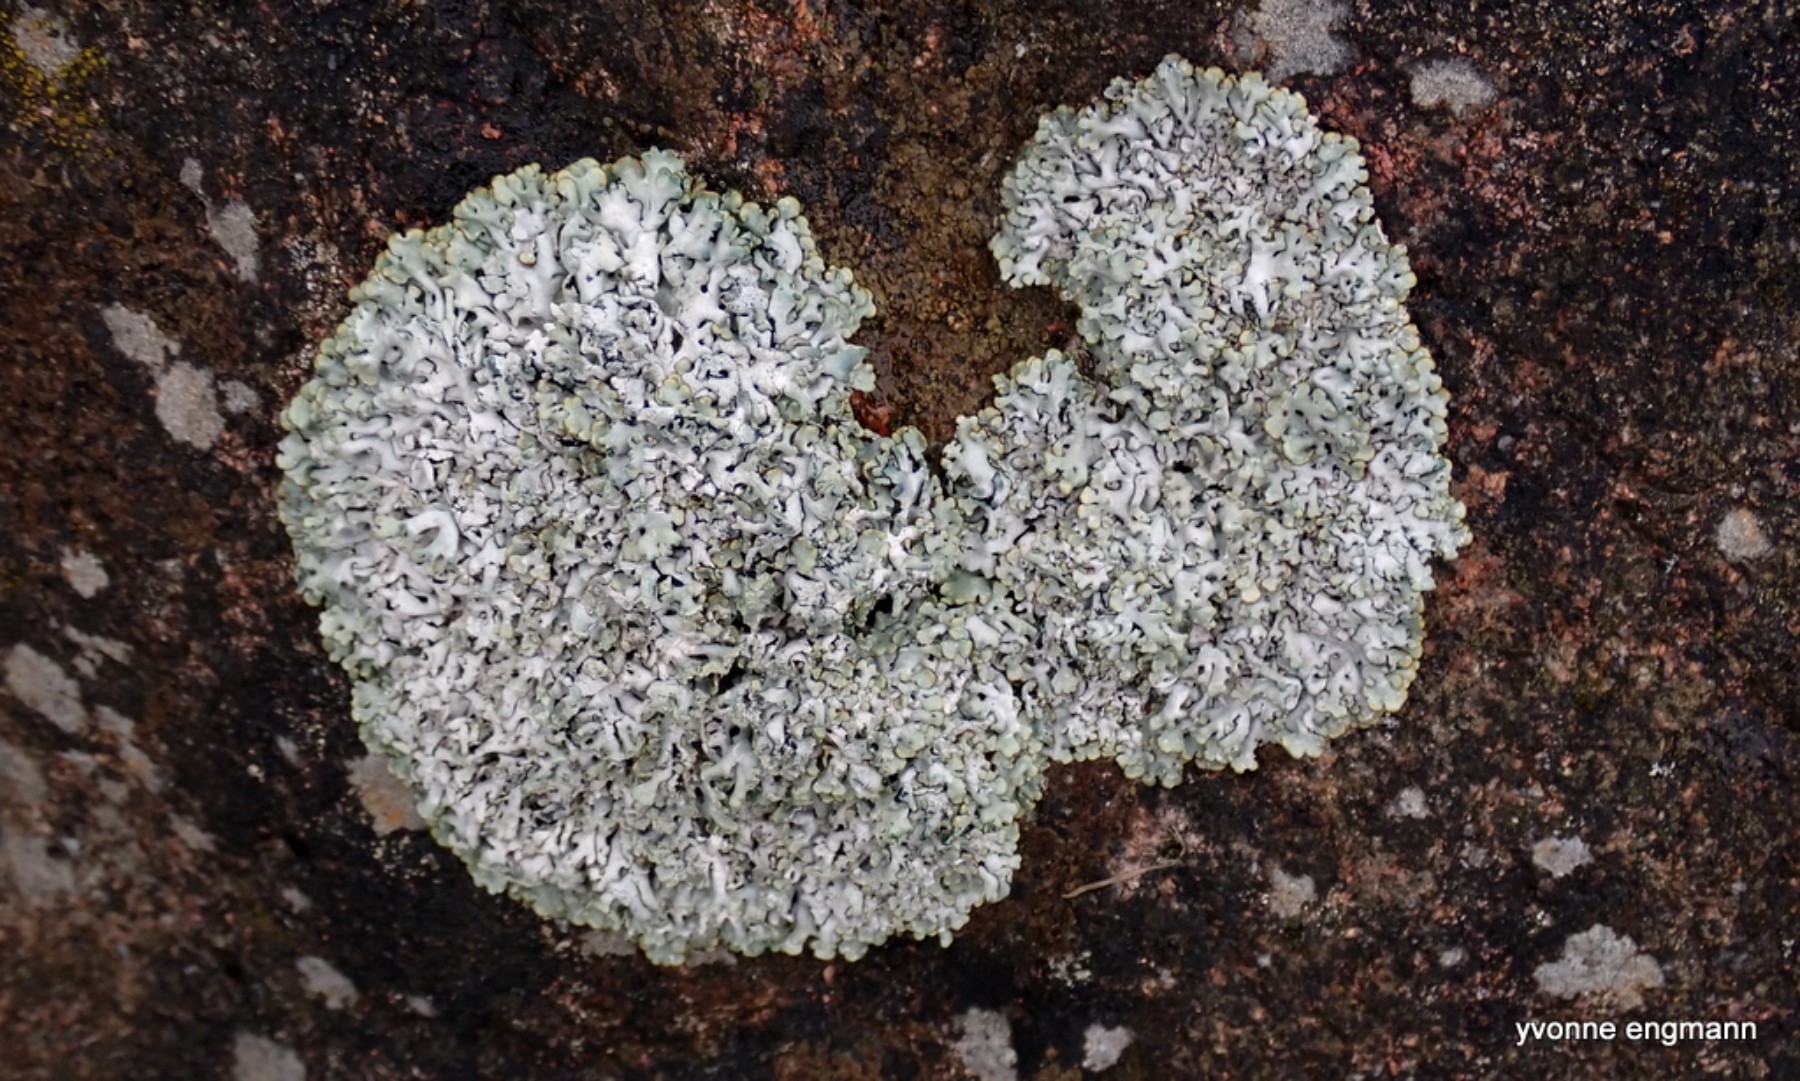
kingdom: Fungi
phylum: Ascomycota
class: Lecanoromycetes
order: Lecanorales
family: Parmeliaceae
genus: Hypogymnia
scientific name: Hypogymnia physodes
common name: almindelig kvistlav
